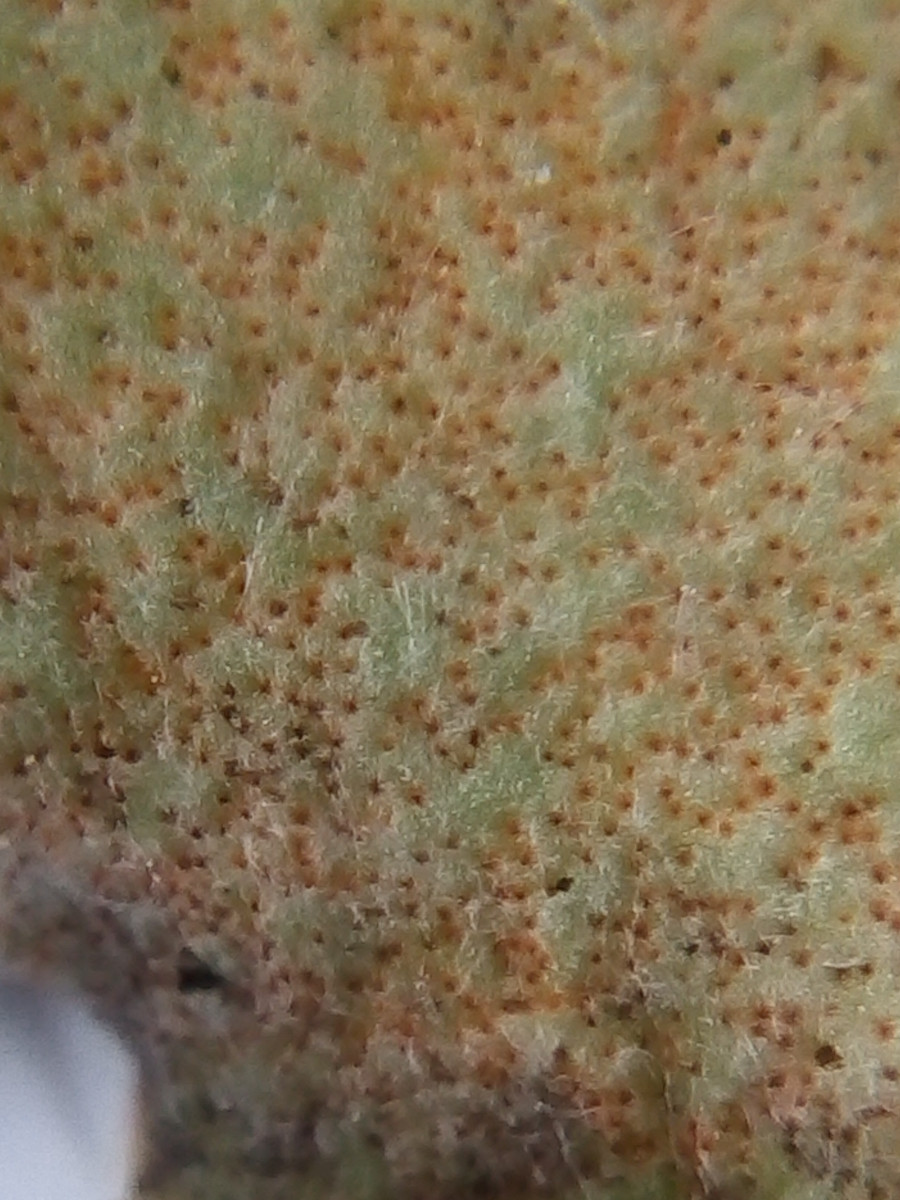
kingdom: Fungi
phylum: Basidiomycota
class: Pucciniomycetes
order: Pucciniales
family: Pucciniaceae
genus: Puccinia
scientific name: Puccinia suaveolens
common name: tidsel-tvecellerust
